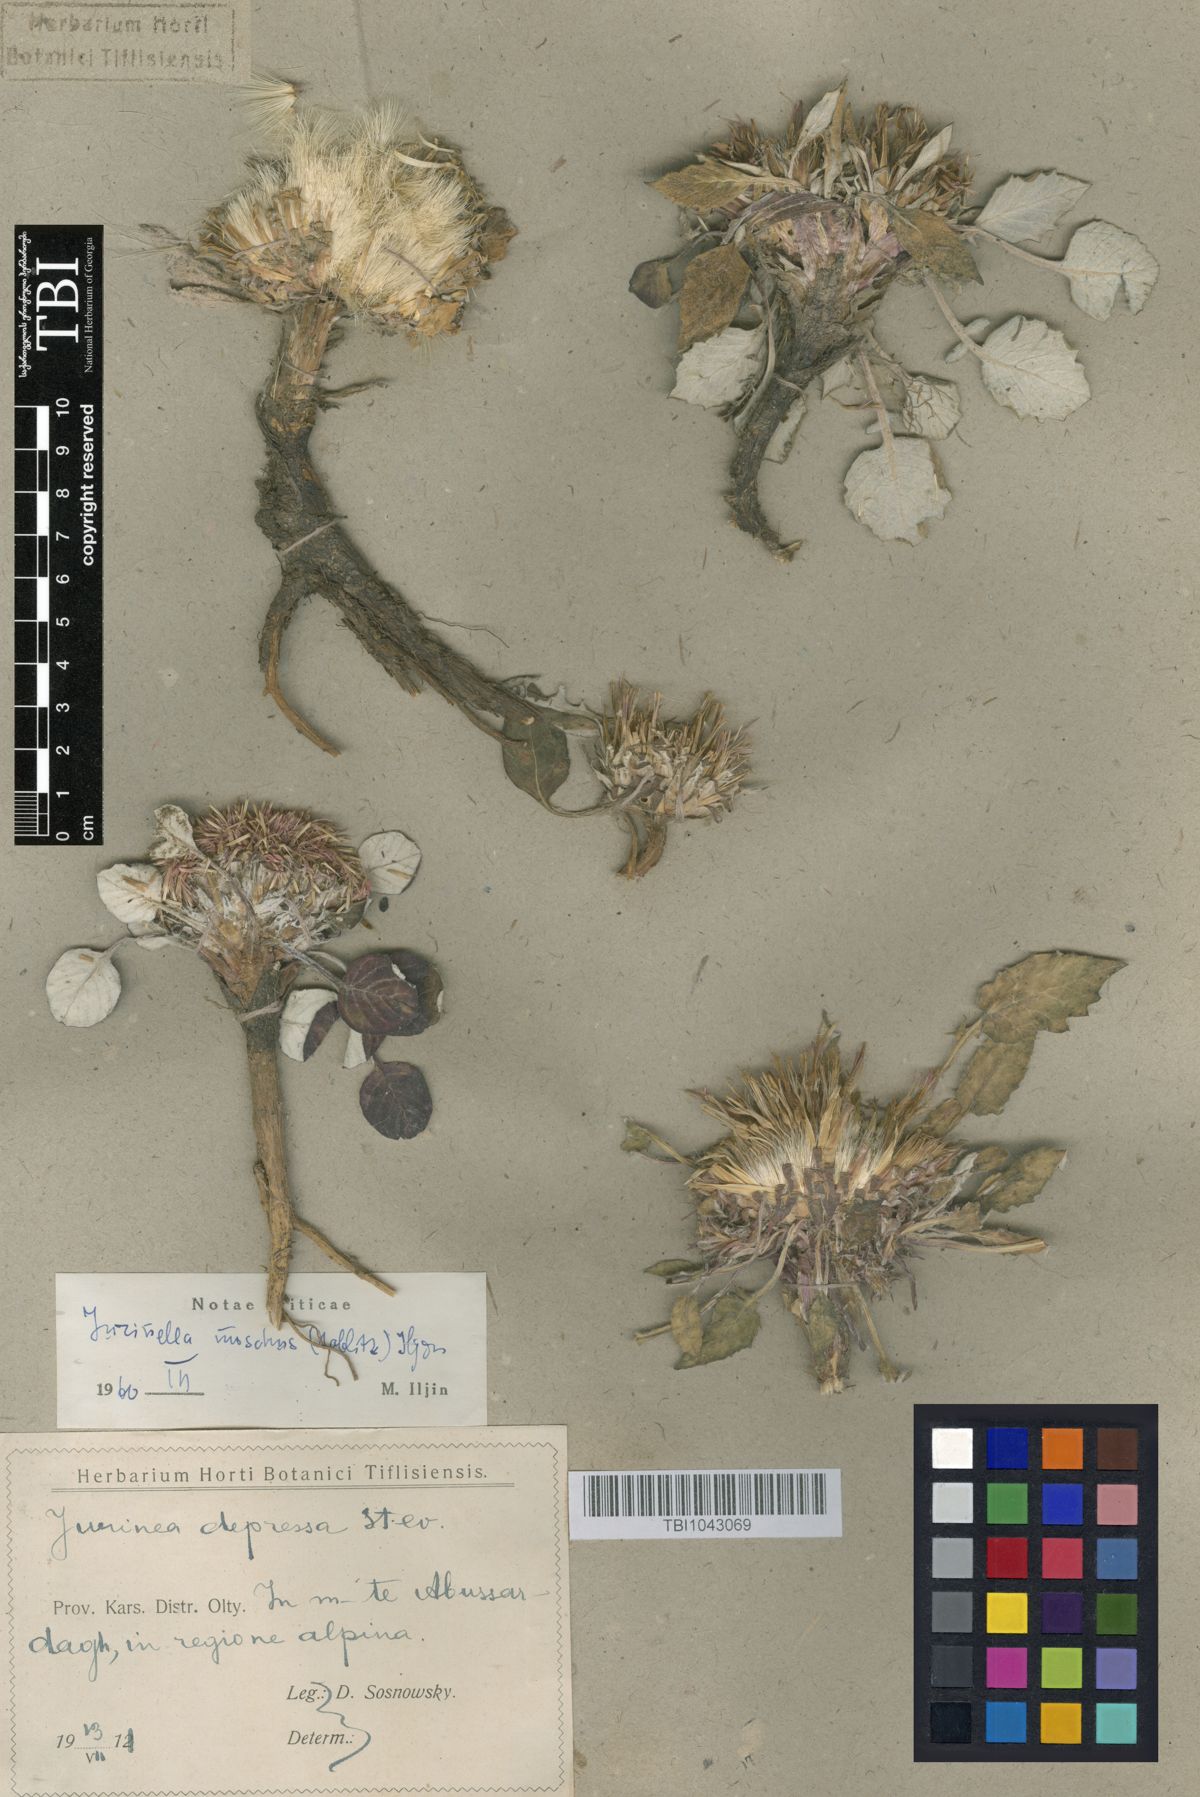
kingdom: Plantae
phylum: Tracheophyta
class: Magnoliopsida
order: Asterales
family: Asteraceae
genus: Jurinea
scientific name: Jurinea moschus
